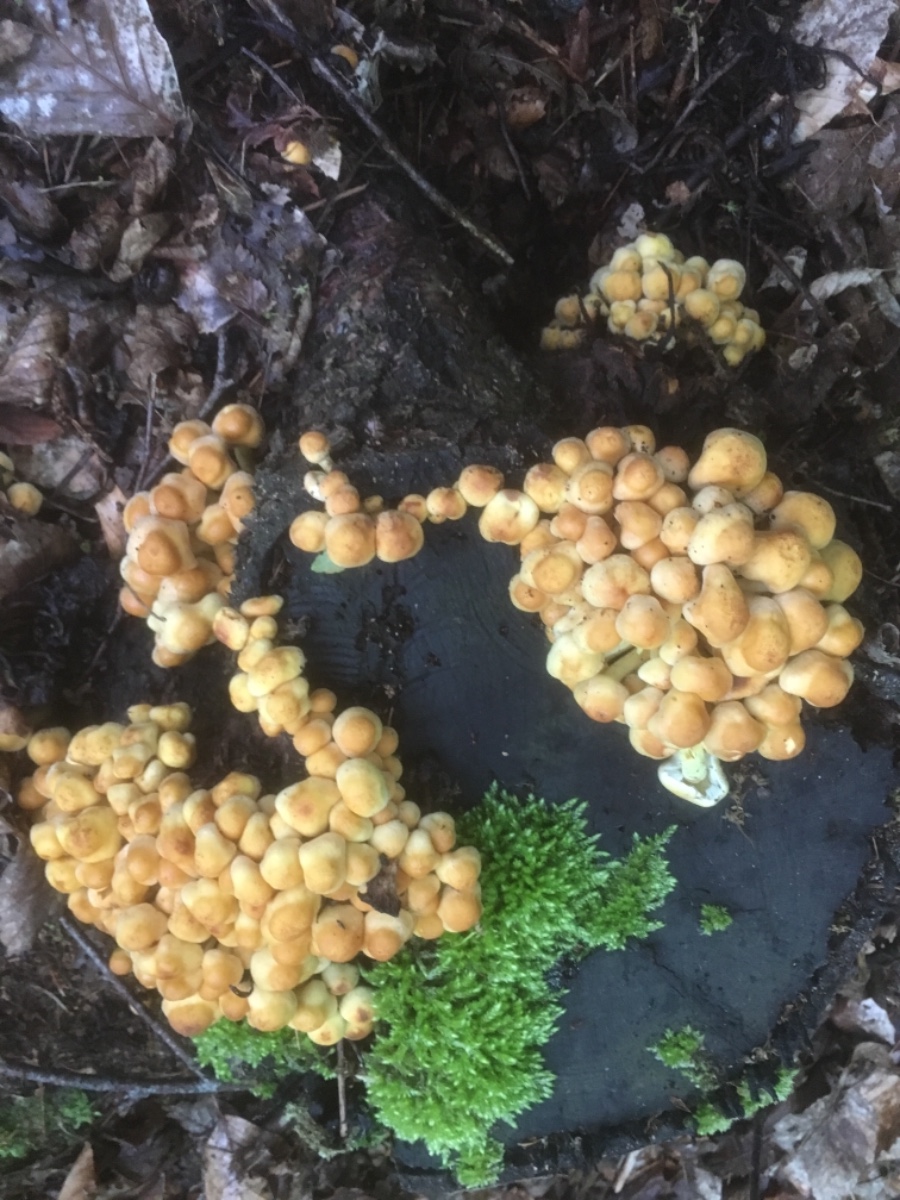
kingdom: Fungi
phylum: Basidiomycota
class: Agaricomycetes
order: Agaricales
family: Strophariaceae
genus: Hypholoma
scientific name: Hypholoma fasciculare
